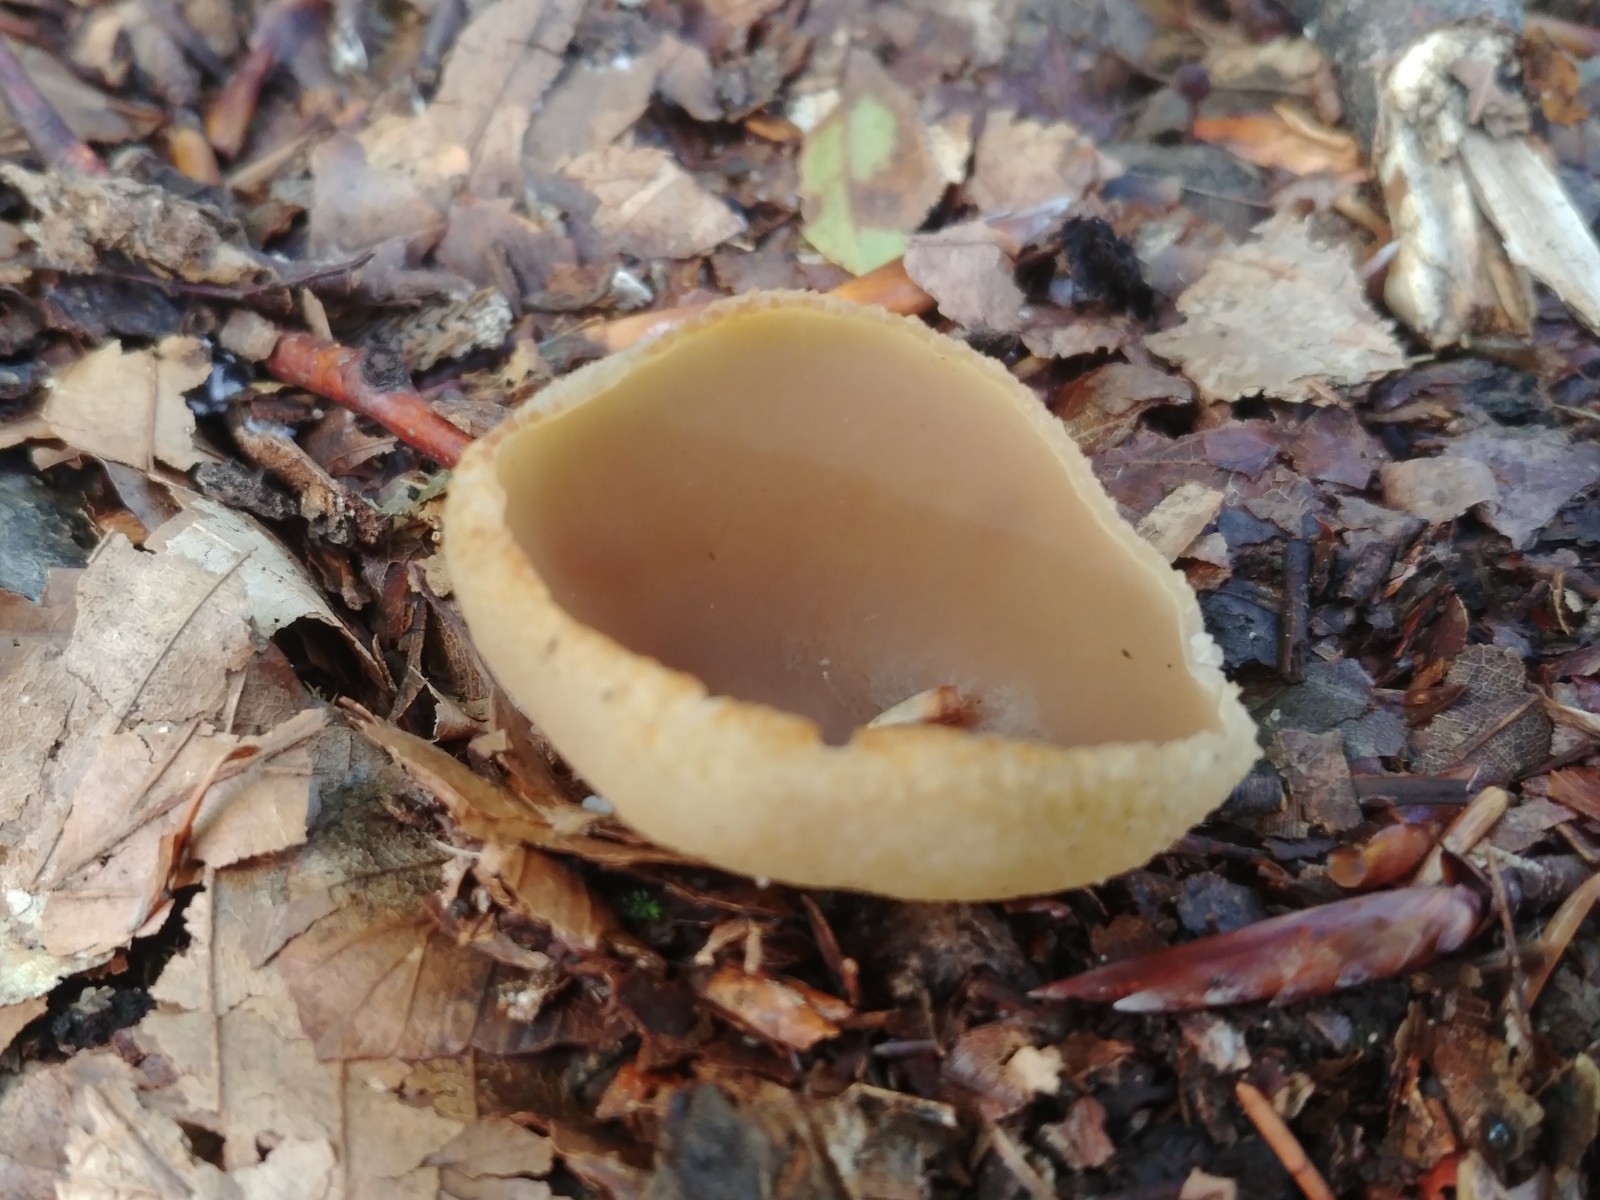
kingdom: Fungi
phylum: Ascomycota
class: Pezizomycetes
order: Pezizales
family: Pezizaceae
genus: Peziza
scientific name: Peziza
